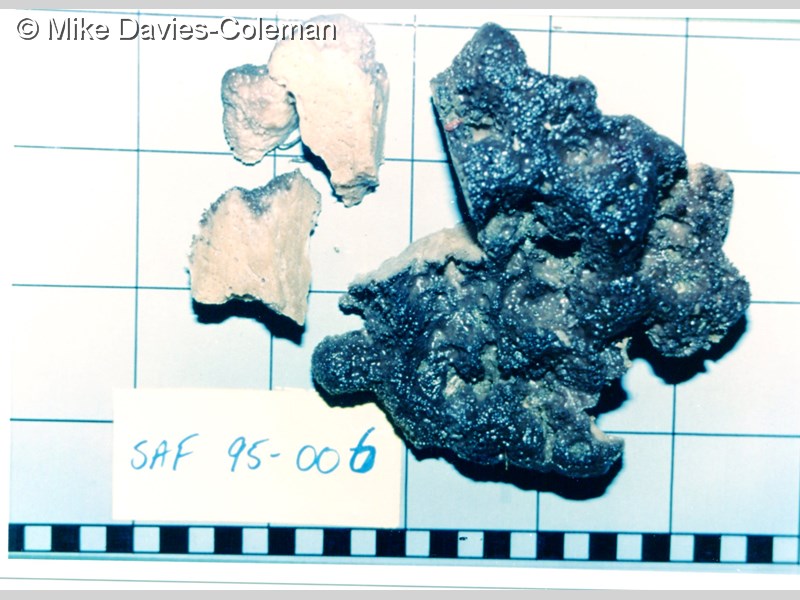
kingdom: Animalia
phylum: Porifera
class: Demospongiae
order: Dictyoceratida
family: Spongiidae
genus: Spongia
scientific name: Spongia
